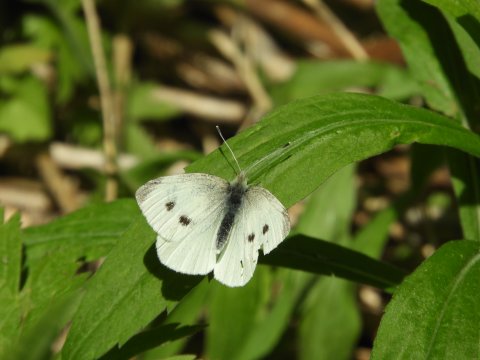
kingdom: Animalia
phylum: Arthropoda
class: Insecta
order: Lepidoptera
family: Pieridae
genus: Pieris
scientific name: Pieris rapae
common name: Cabbage White
